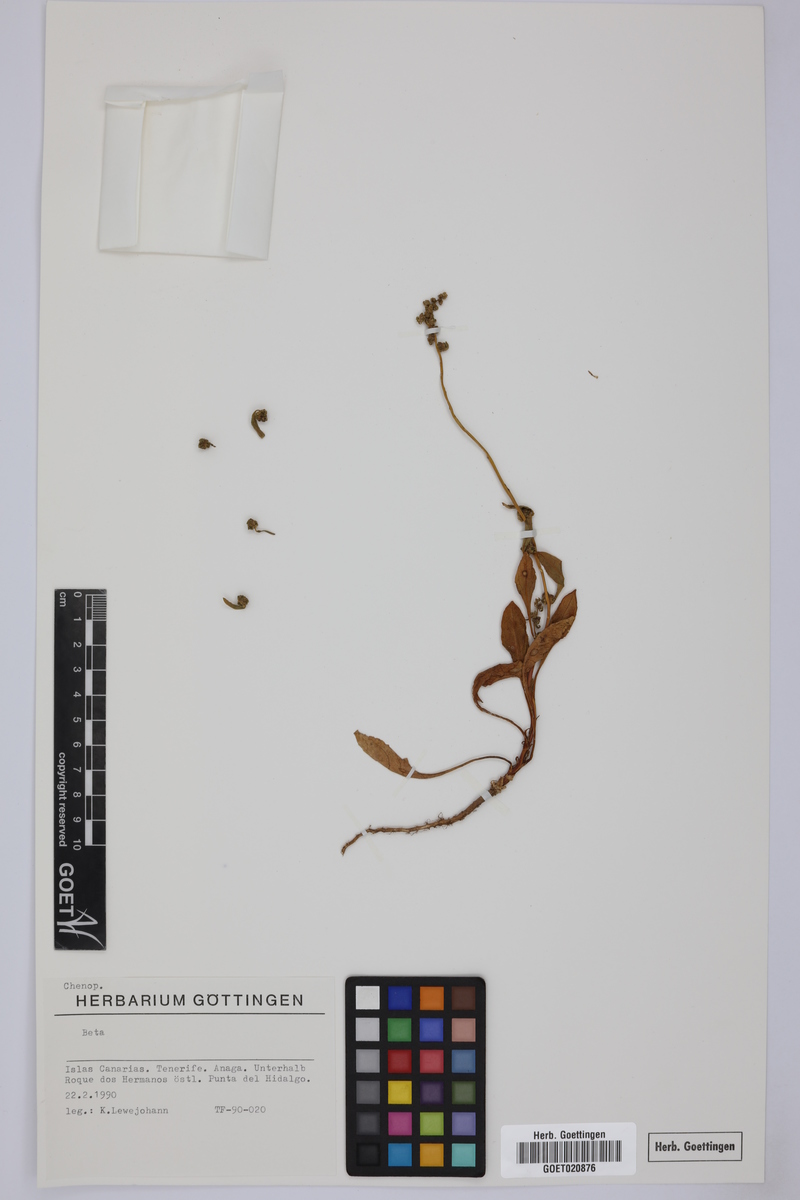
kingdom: Plantae
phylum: Tracheophyta
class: Magnoliopsida
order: Caryophyllales
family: Amaranthaceae
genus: Beta
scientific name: Beta
